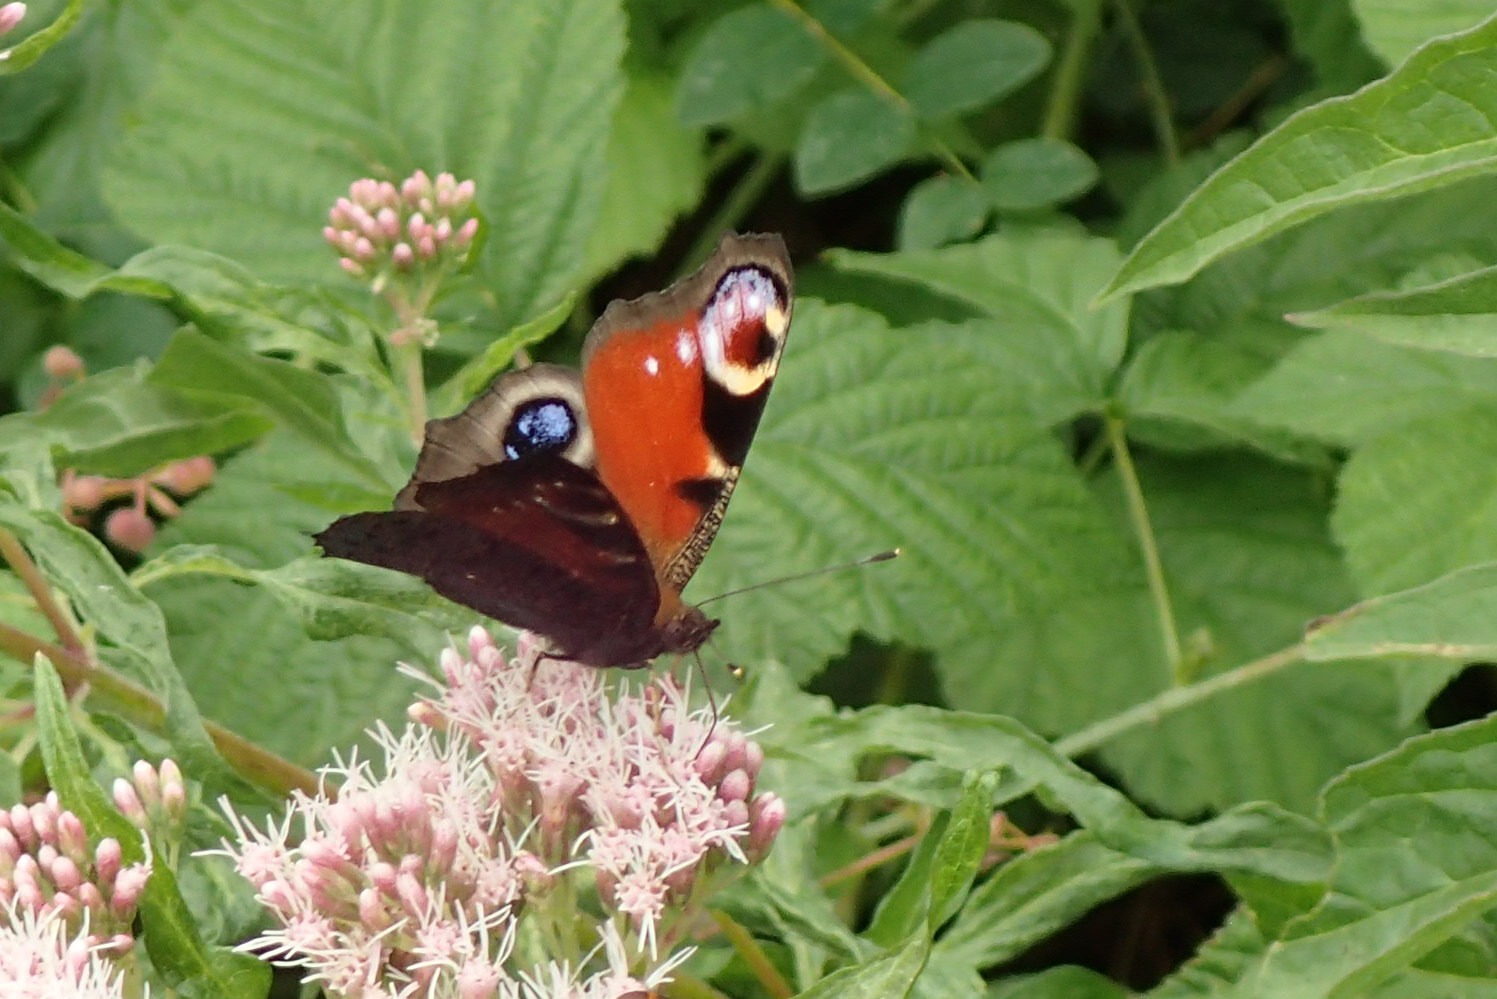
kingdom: Animalia
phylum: Arthropoda
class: Insecta
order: Lepidoptera
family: Nymphalidae
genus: Aglais
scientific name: Aglais io
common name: Dagpåfugleøje
